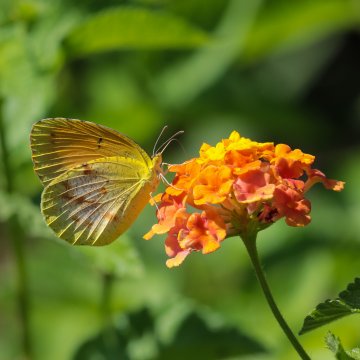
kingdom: Animalia
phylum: Arthropoda
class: Insecta
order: Lepidoptera
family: Pieridae
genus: Abaeis
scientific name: Abaeis nicippe
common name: Sleepy Orange
